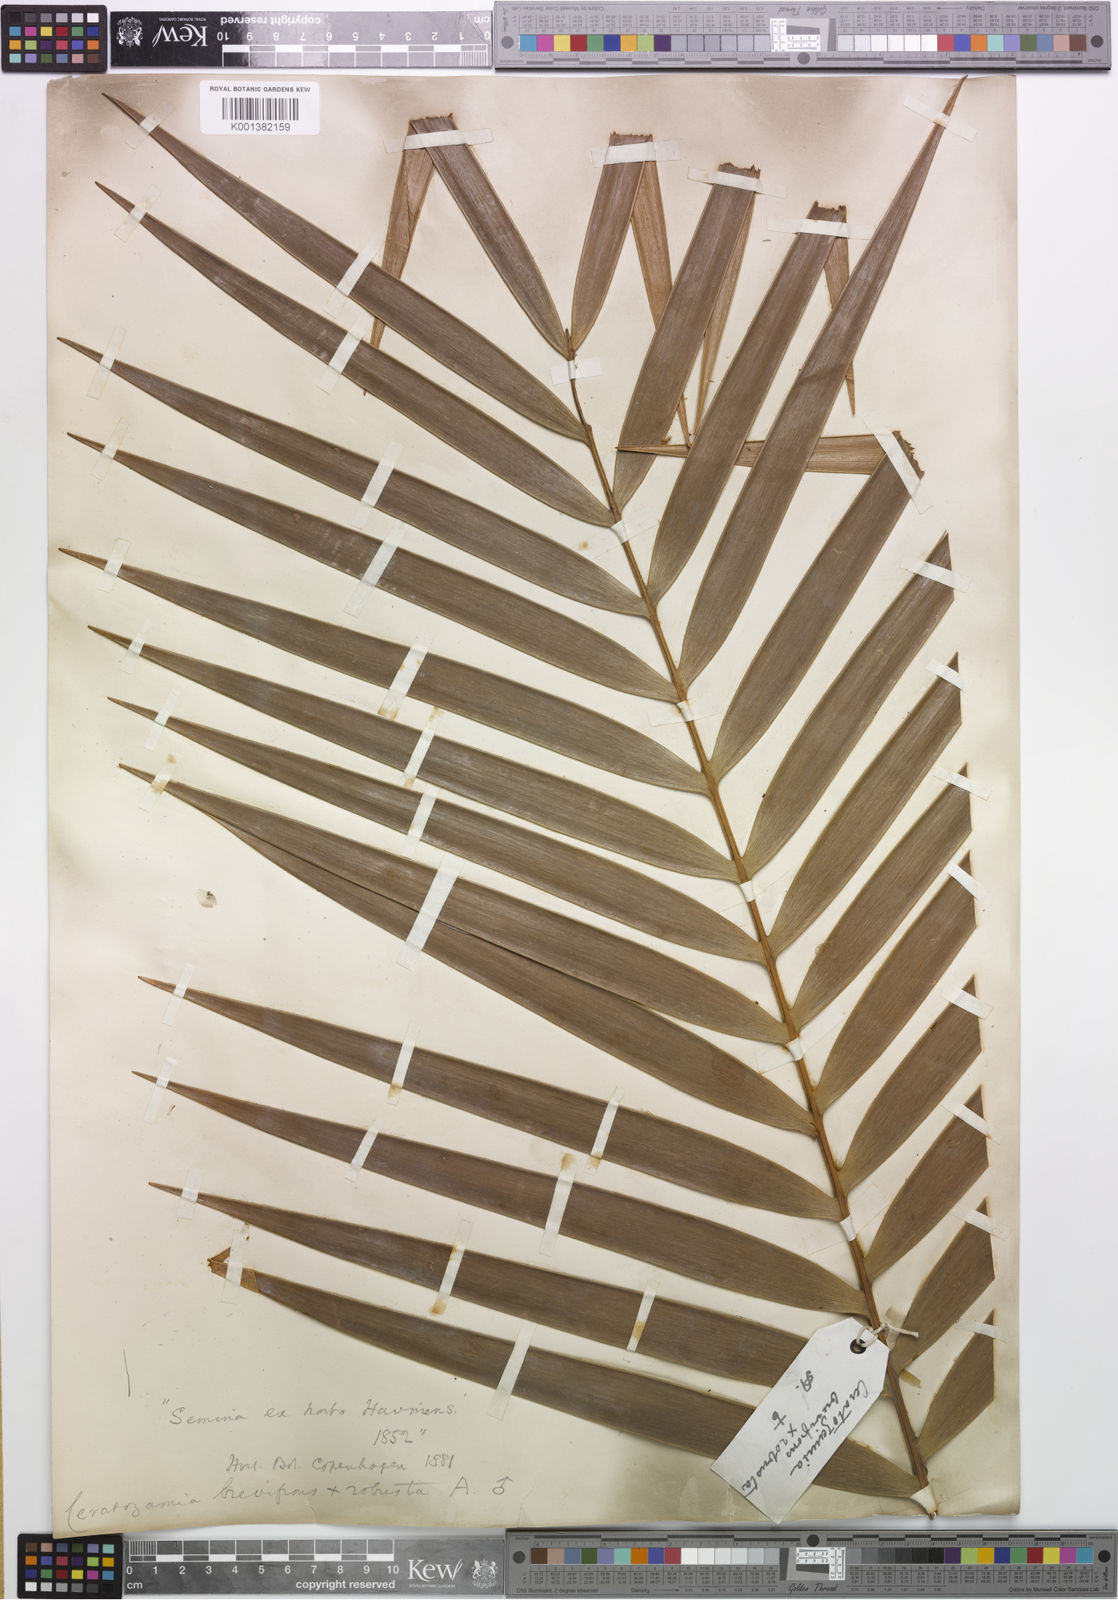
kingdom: Plantae
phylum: Tracheophyta
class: Cycadopsida
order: Cycadales
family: Zamiaceae
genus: Ceratozamia
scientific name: Ceratozamia brevifrons
